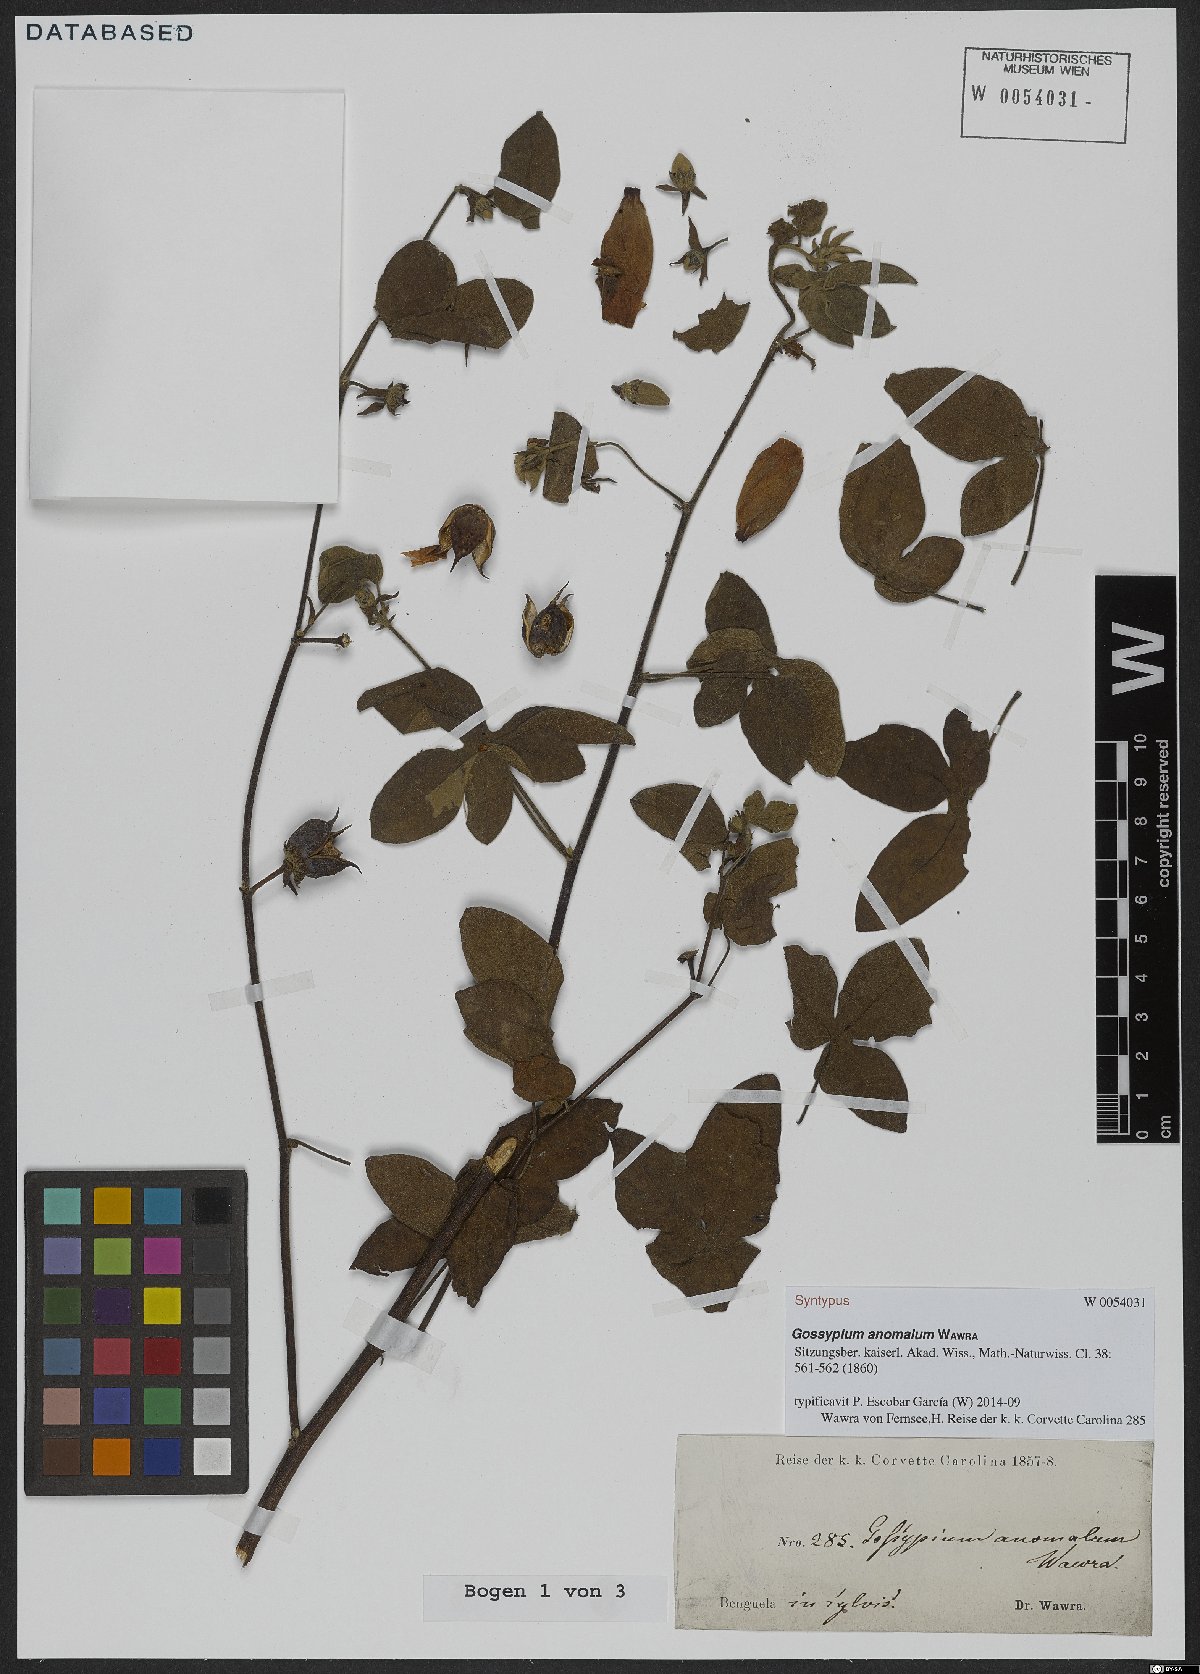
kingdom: Plantae
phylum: Tracheophyta
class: Magnoliopsida
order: Malvales
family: Malvaceae
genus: Gossypium
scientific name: Gossypium anomalum
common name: African wild cotton
